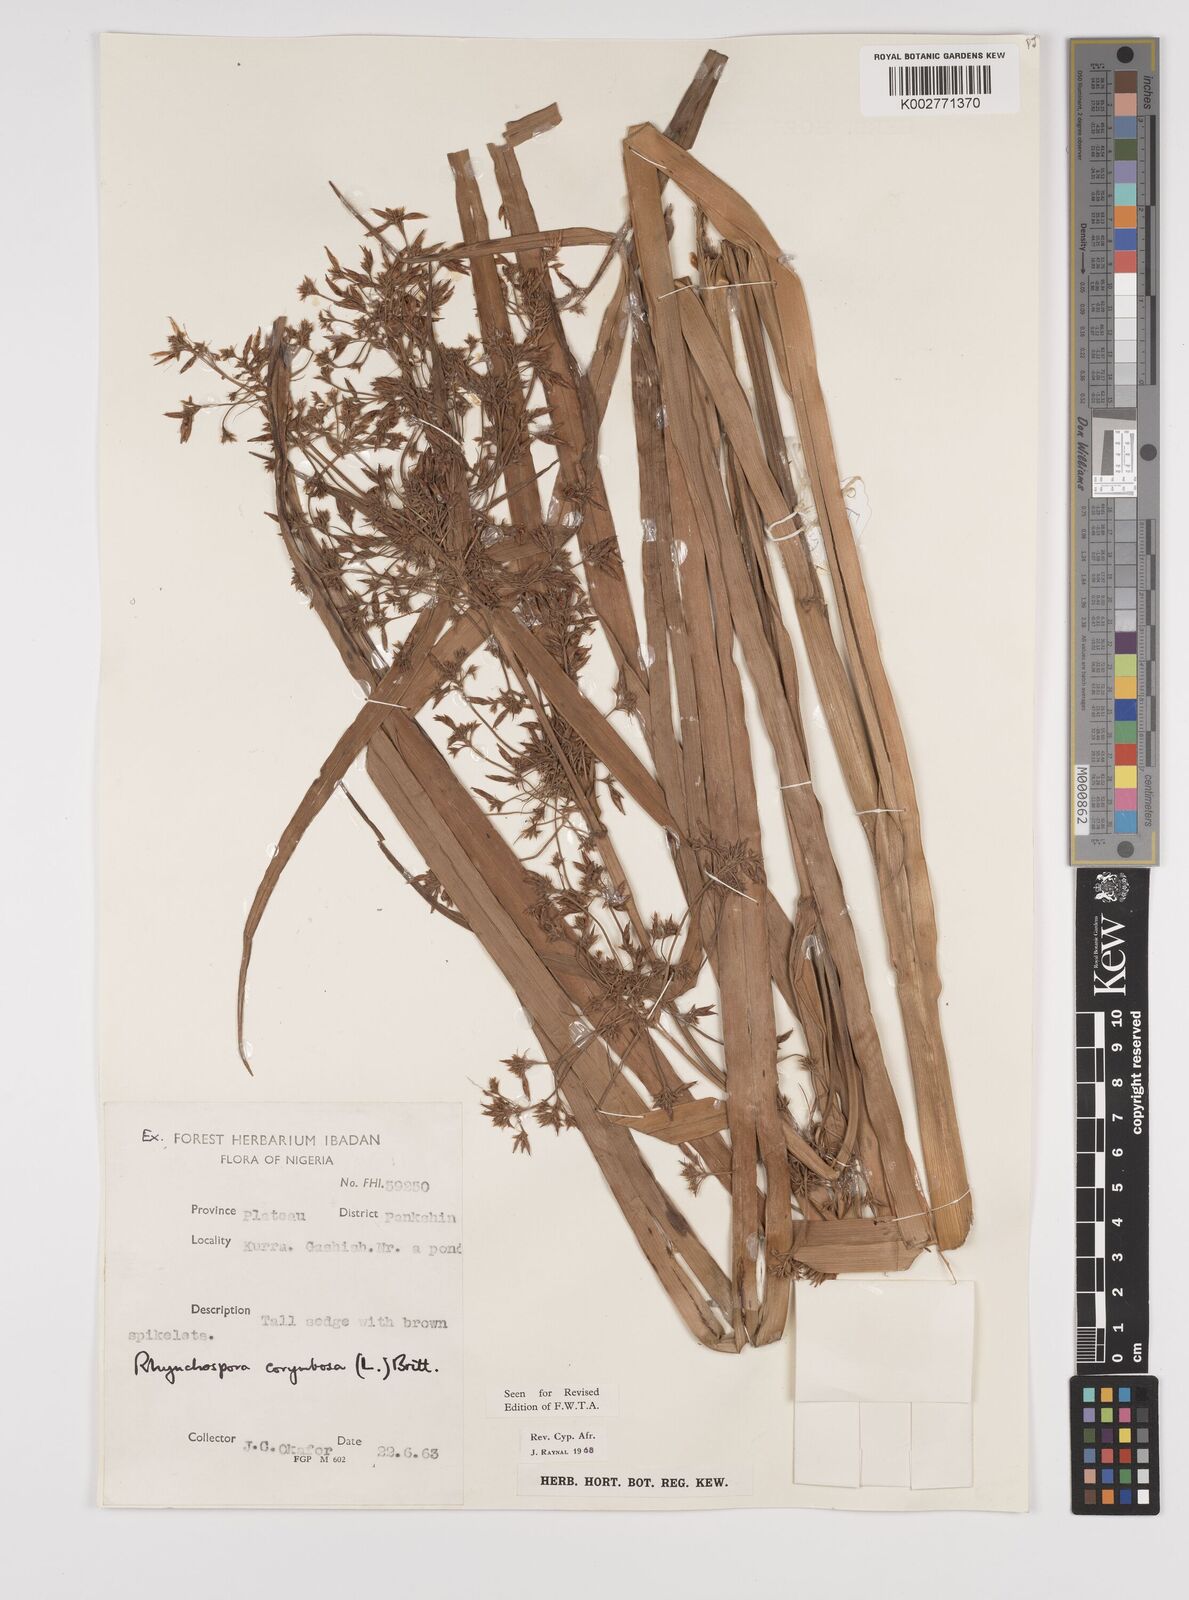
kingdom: Plantae
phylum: Tracheophyta
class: Liliopsida
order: Poales
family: Cyperaceae
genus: Rhynchospora
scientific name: Rhynchospora corymbosa
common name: Golden beak sedge
